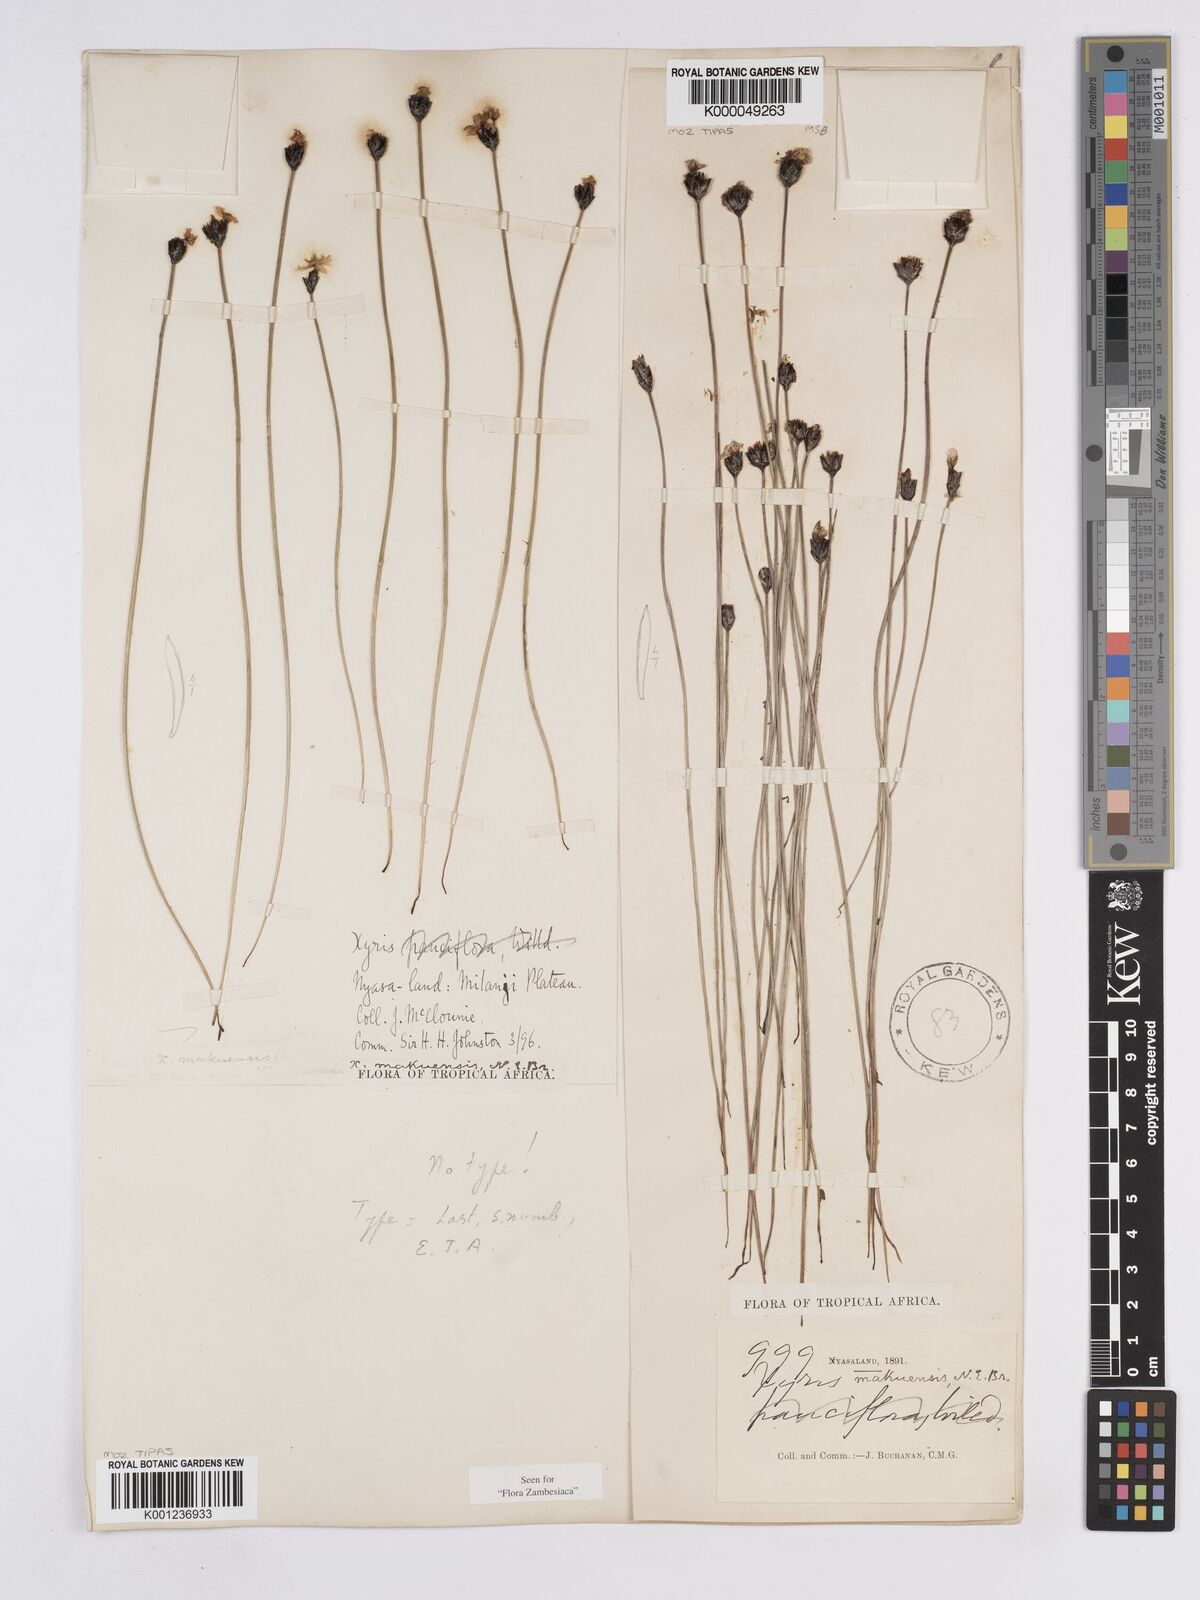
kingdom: Plantae
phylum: Tracheophyta
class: Liliopsida
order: Poales
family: Xyridaceae
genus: Xyris
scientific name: Xyris makuensis
